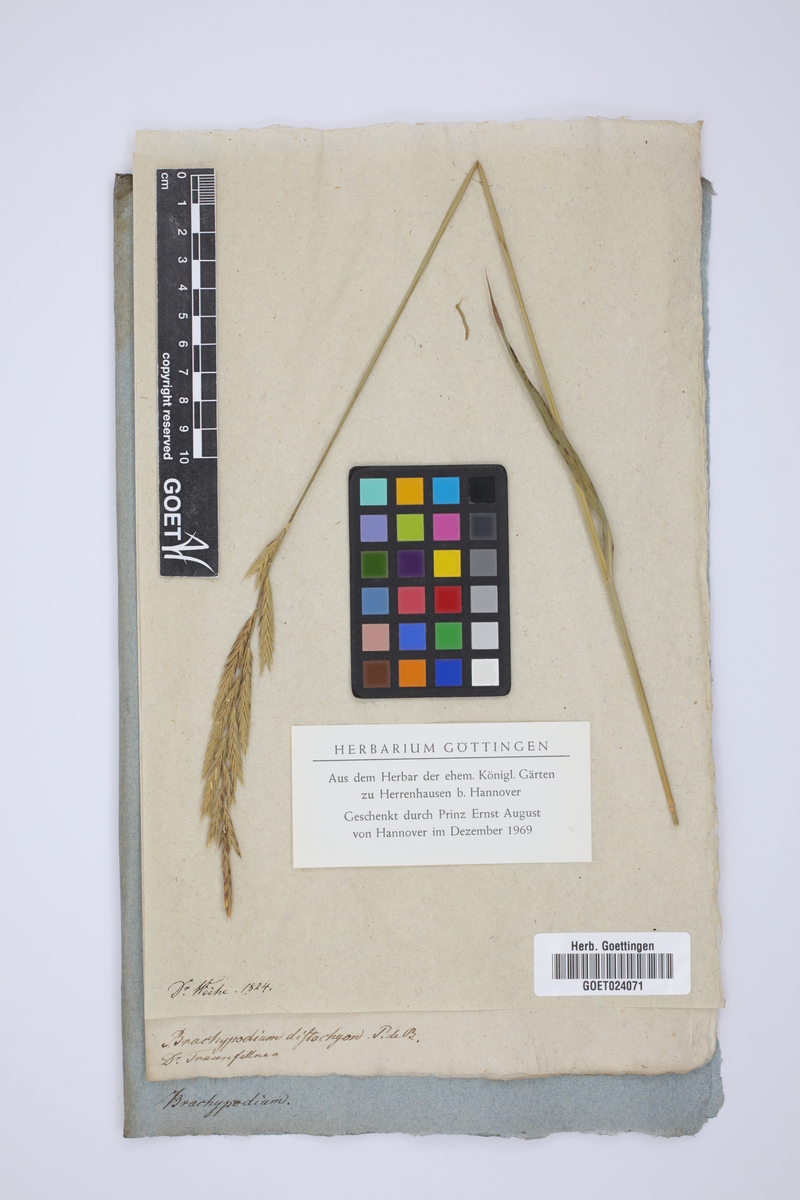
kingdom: Plantae
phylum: Tracheophyta
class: Liliopsida
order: Poales
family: Poaceae
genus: Brachypodium
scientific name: Brachypodium distachyon
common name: Stiff brome
